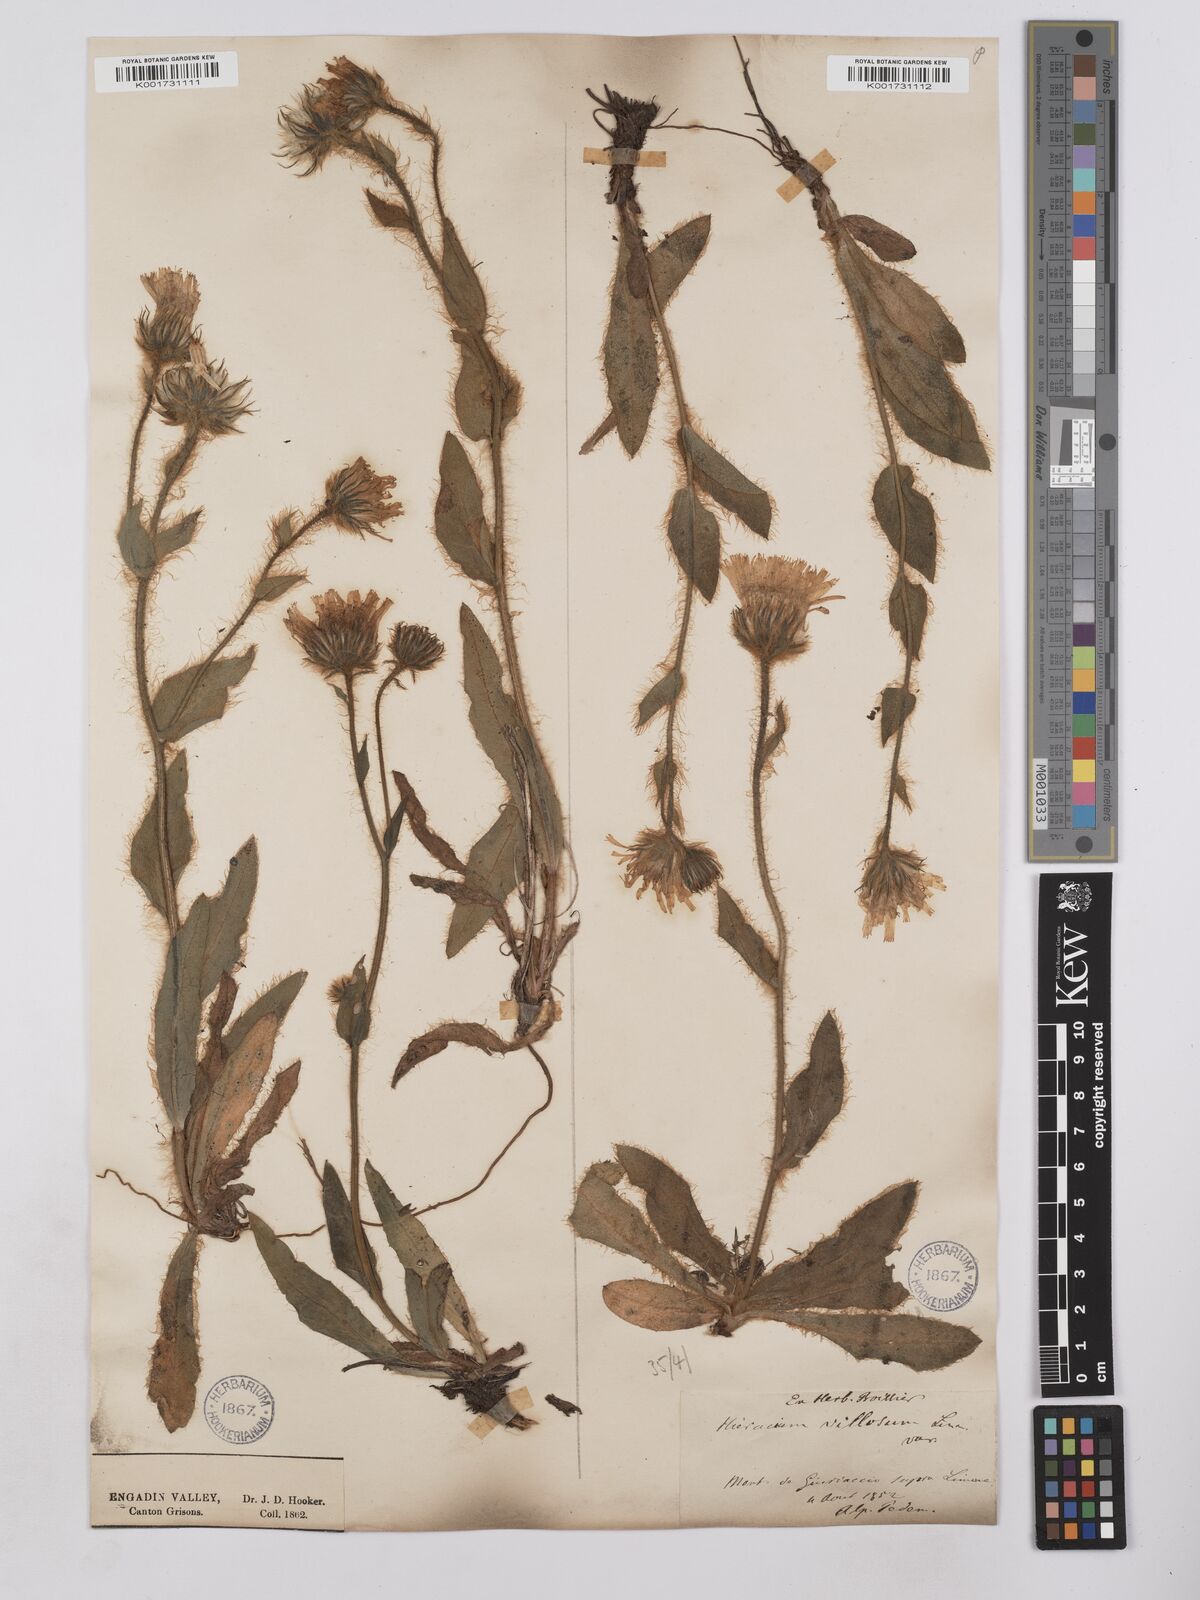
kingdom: Plantae
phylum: Tracheophyta
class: Magnoliopsida
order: Asterales
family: Asteraceae
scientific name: Asteraceae
